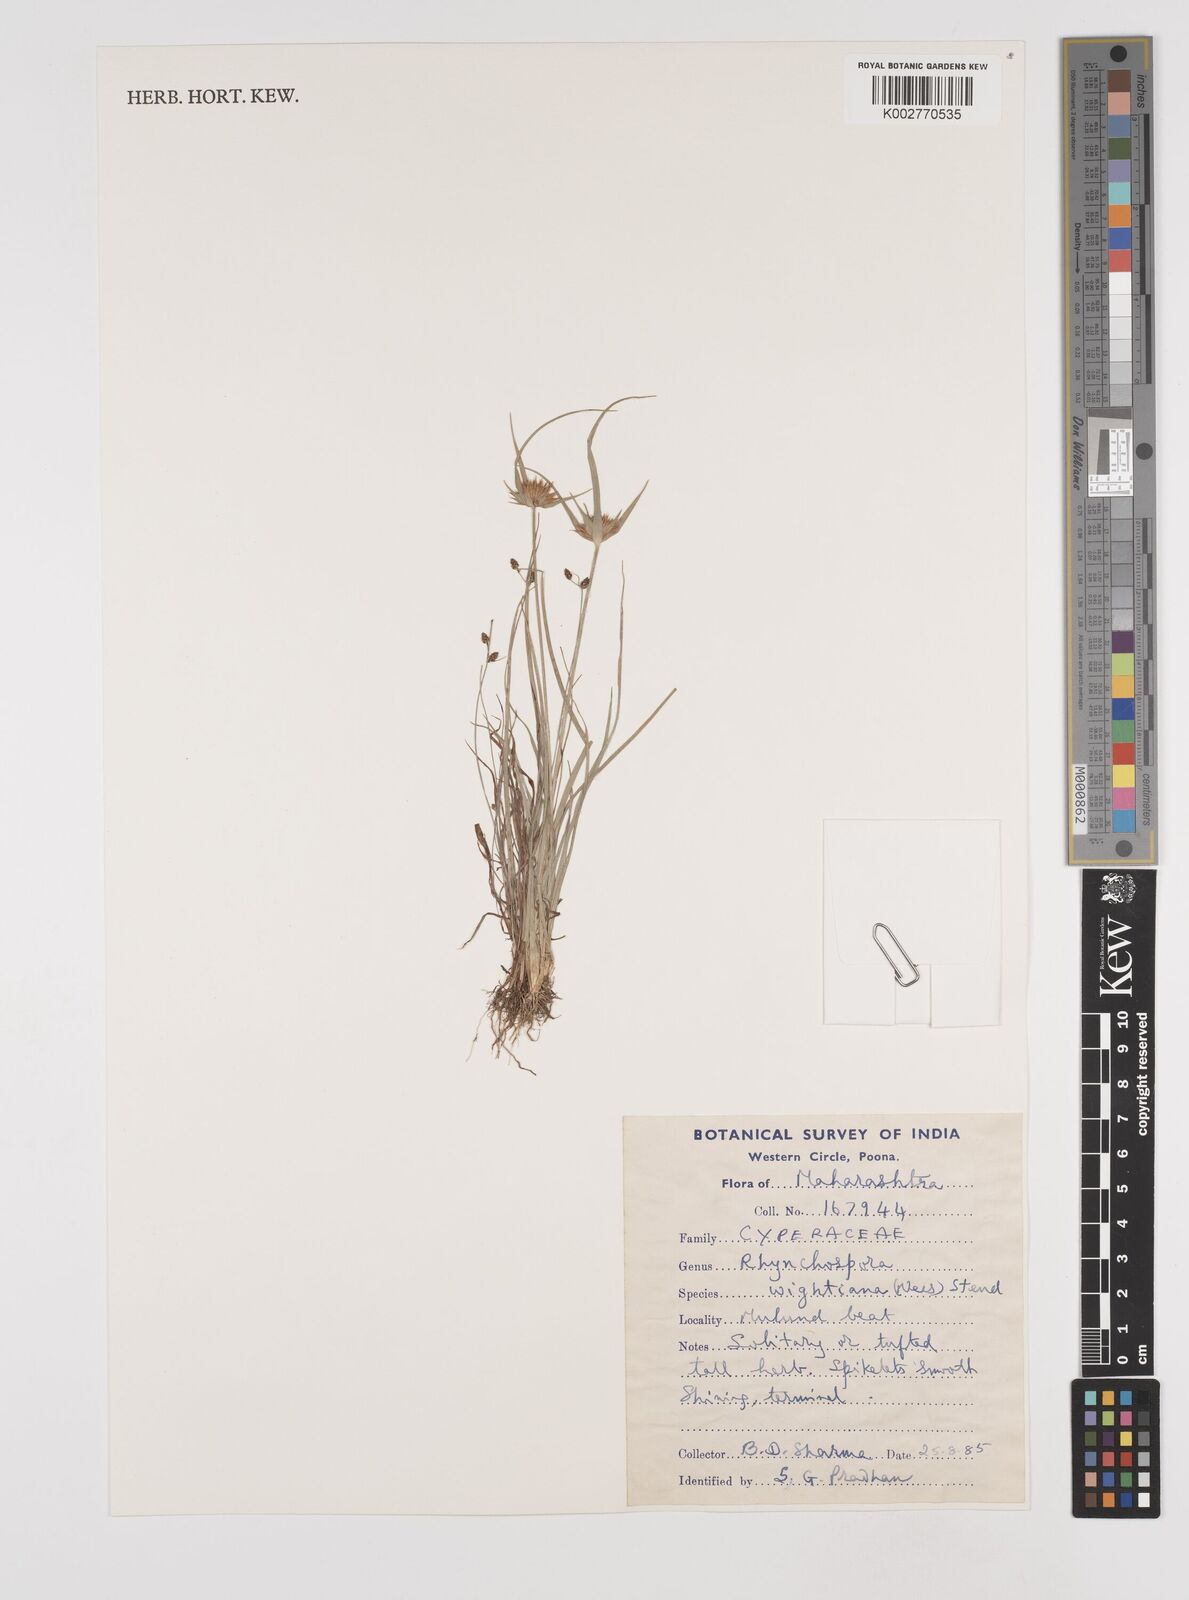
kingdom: Plantae
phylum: Tracheophyta
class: Liliopsida
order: Poales
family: Cyperaceae
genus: Rhynchospora
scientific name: Rhynchospora wightiana
